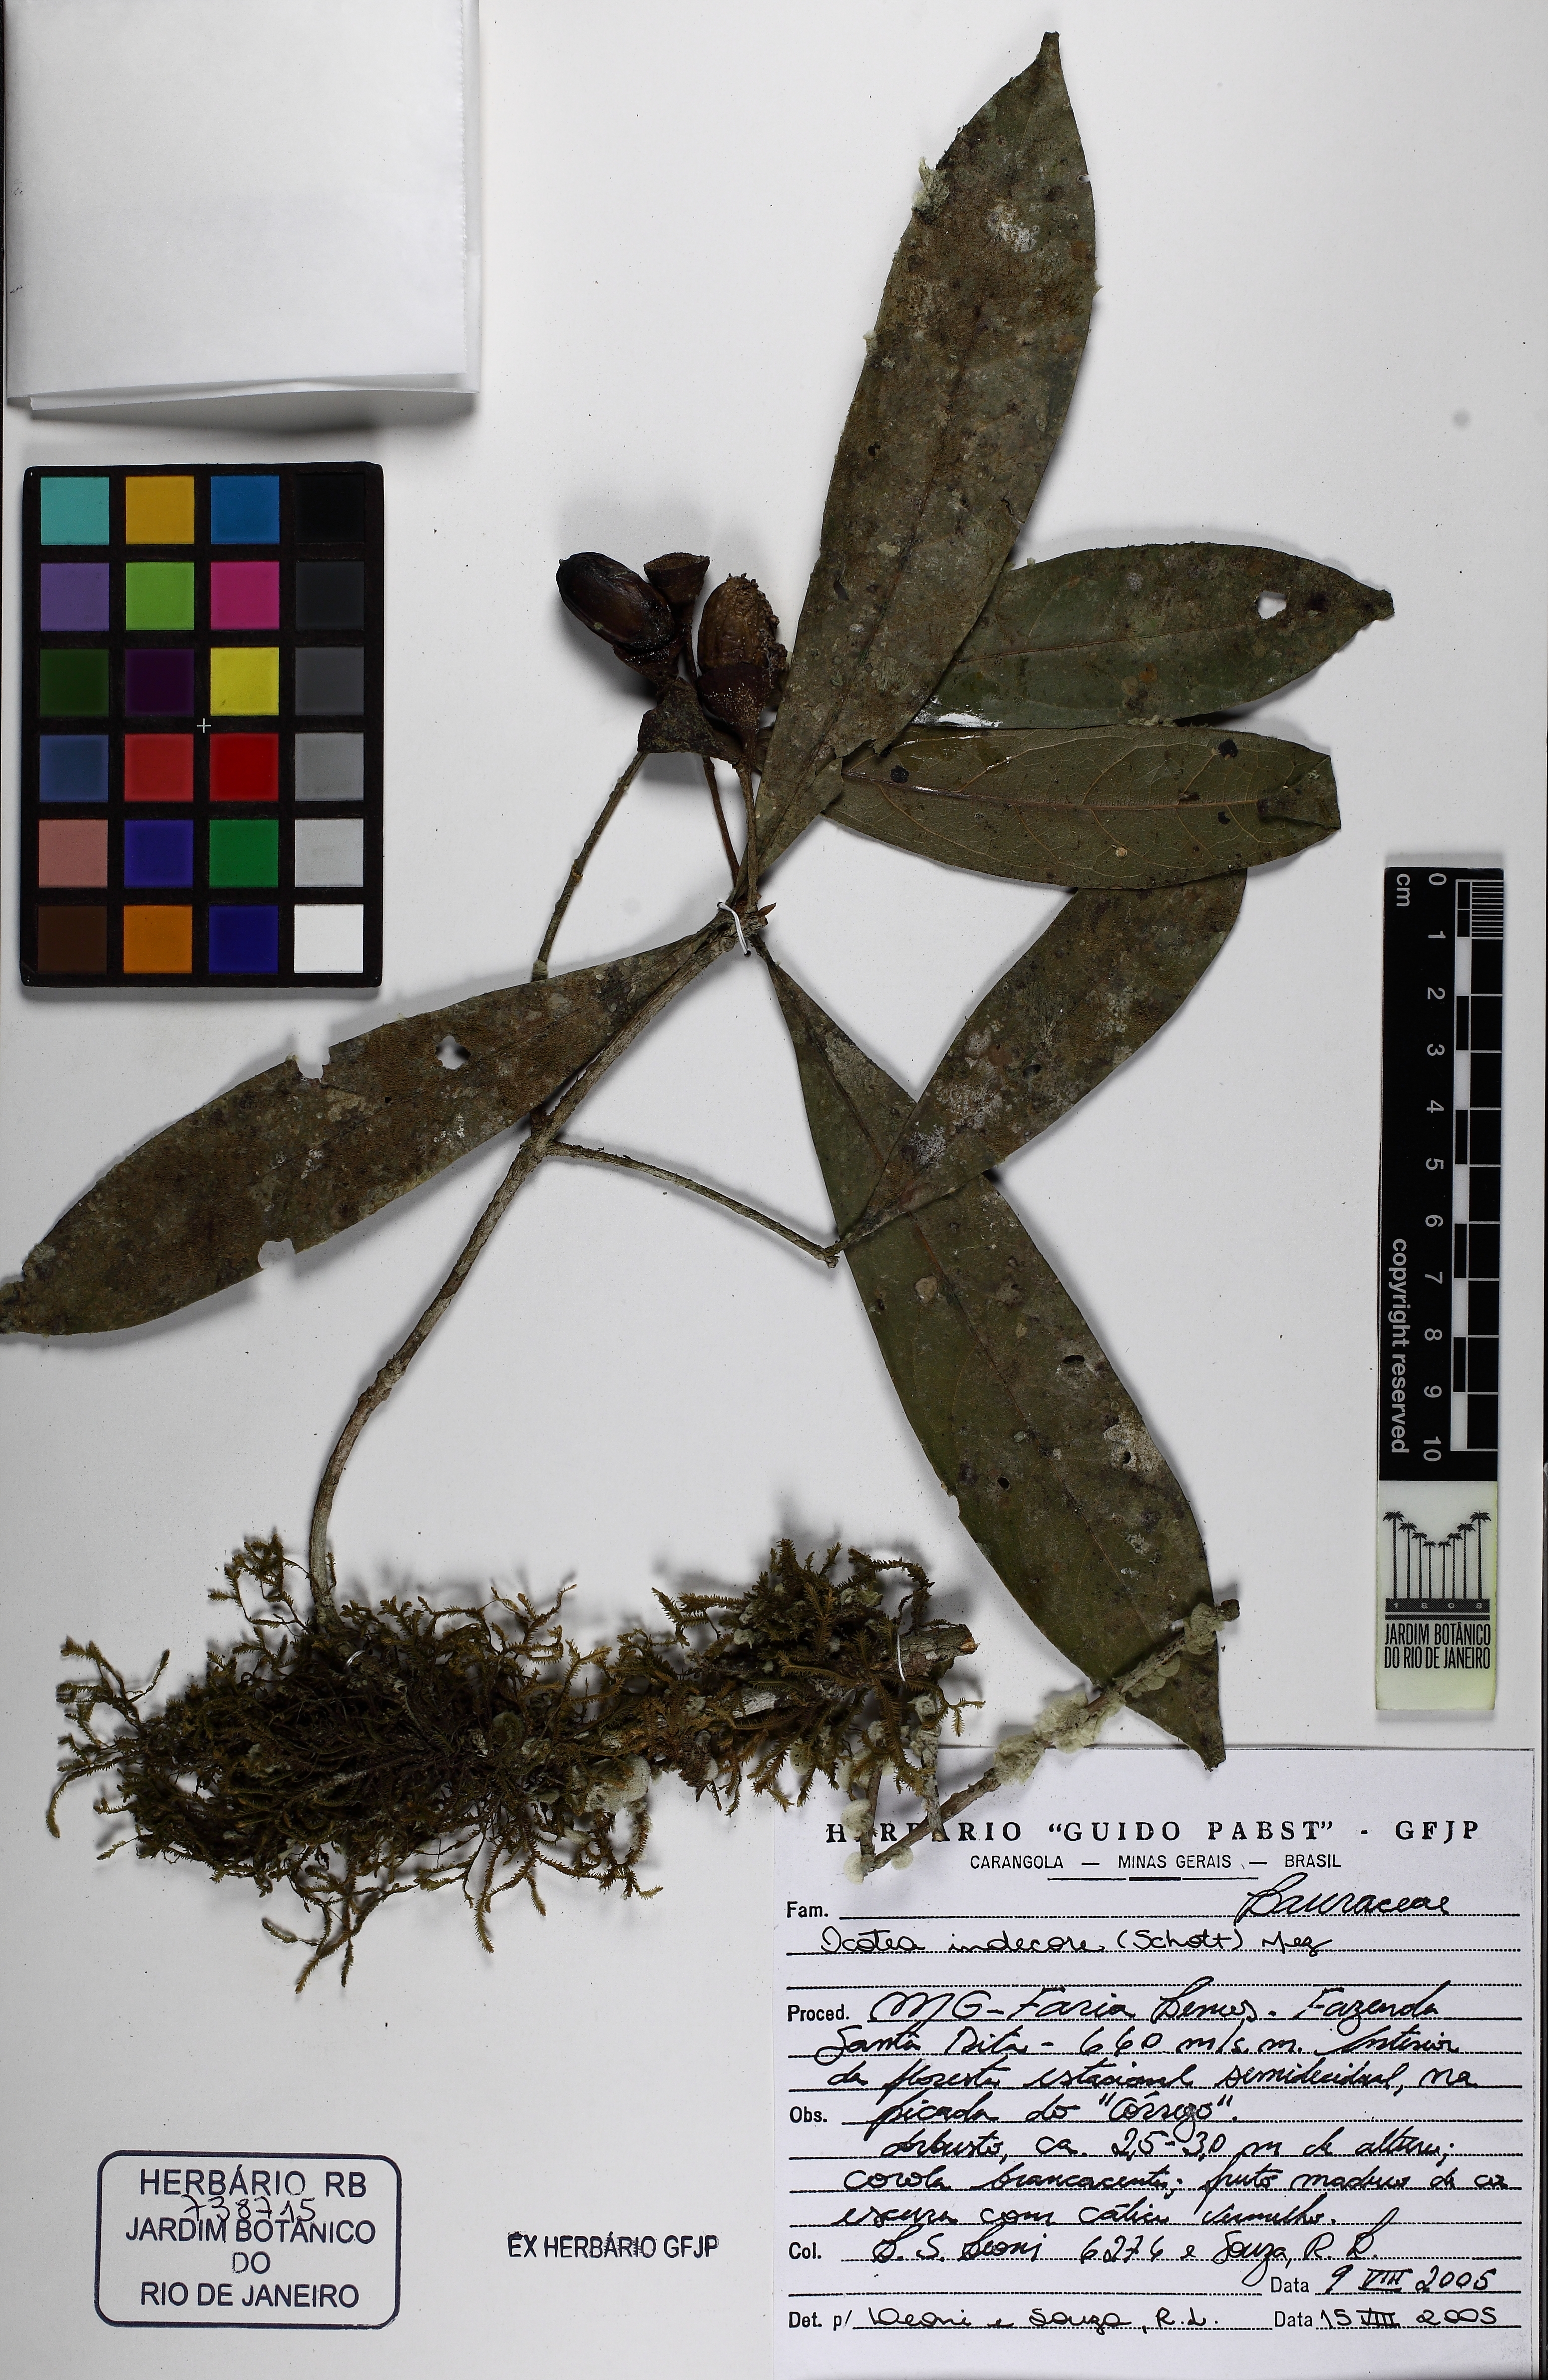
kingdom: Plantae
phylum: Tracheophyta
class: Magnoliopsida
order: Laurales
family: Lauraceae
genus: Mespilodaphne
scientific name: Mespilodaphne indecora
